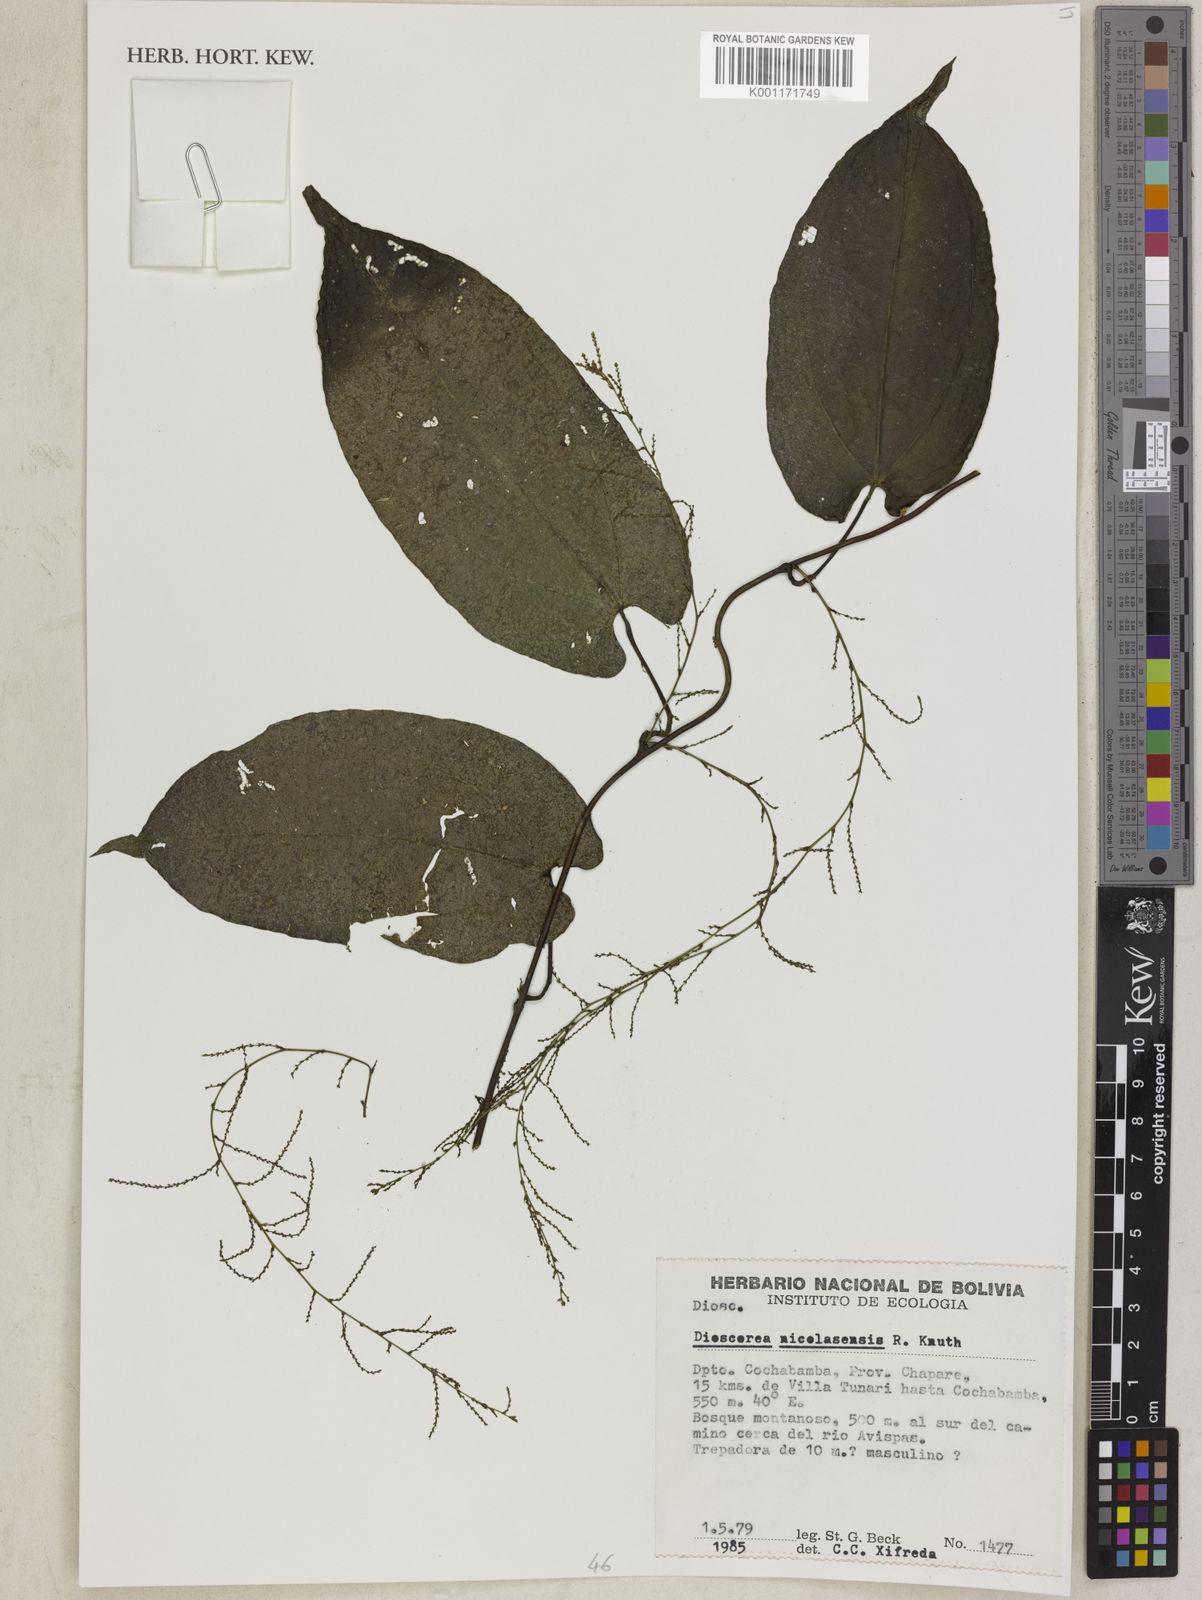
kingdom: Plantae
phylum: Tracheophyta
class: Liliopsida
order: Dioscoreales
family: Dioscoreaceae
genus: Dioscorea
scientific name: Dioscorea nicolasensis
